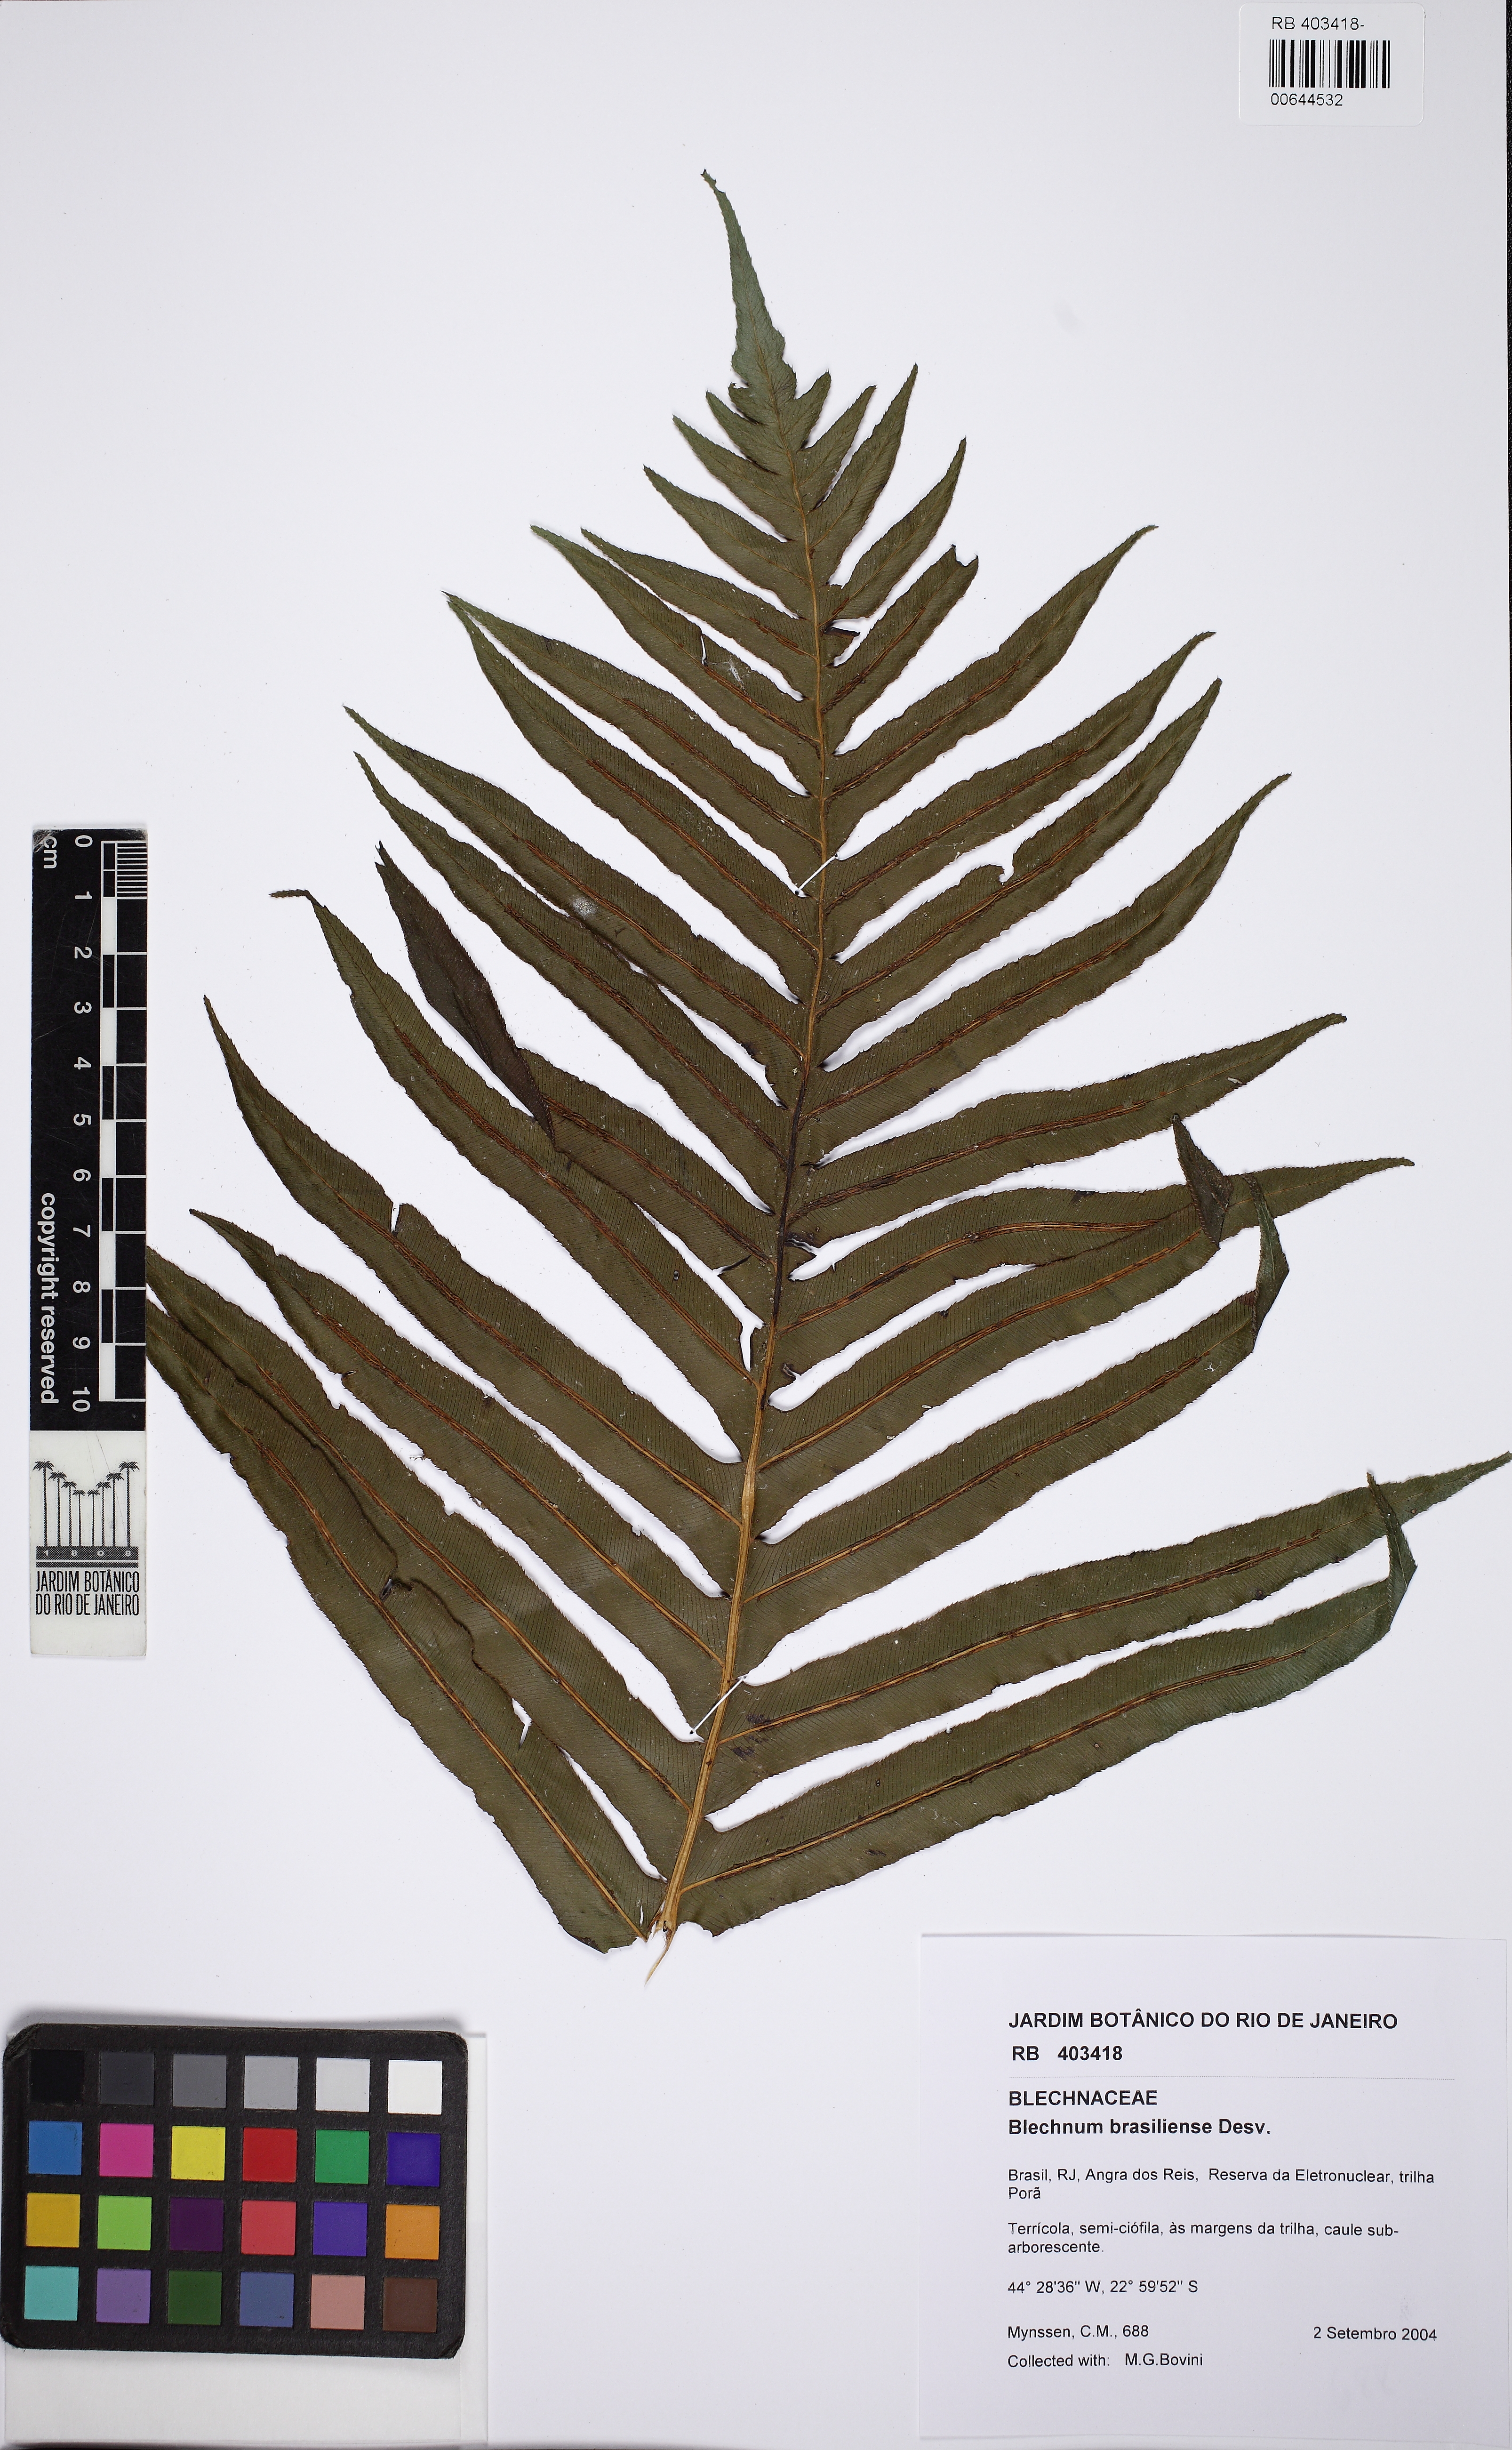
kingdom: Plantae
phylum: Tracheophyta
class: Polypodiopsida
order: Polypodiales
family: Blechnaceae
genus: Neoblechnum
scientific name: Neoblechnum brasiliense
